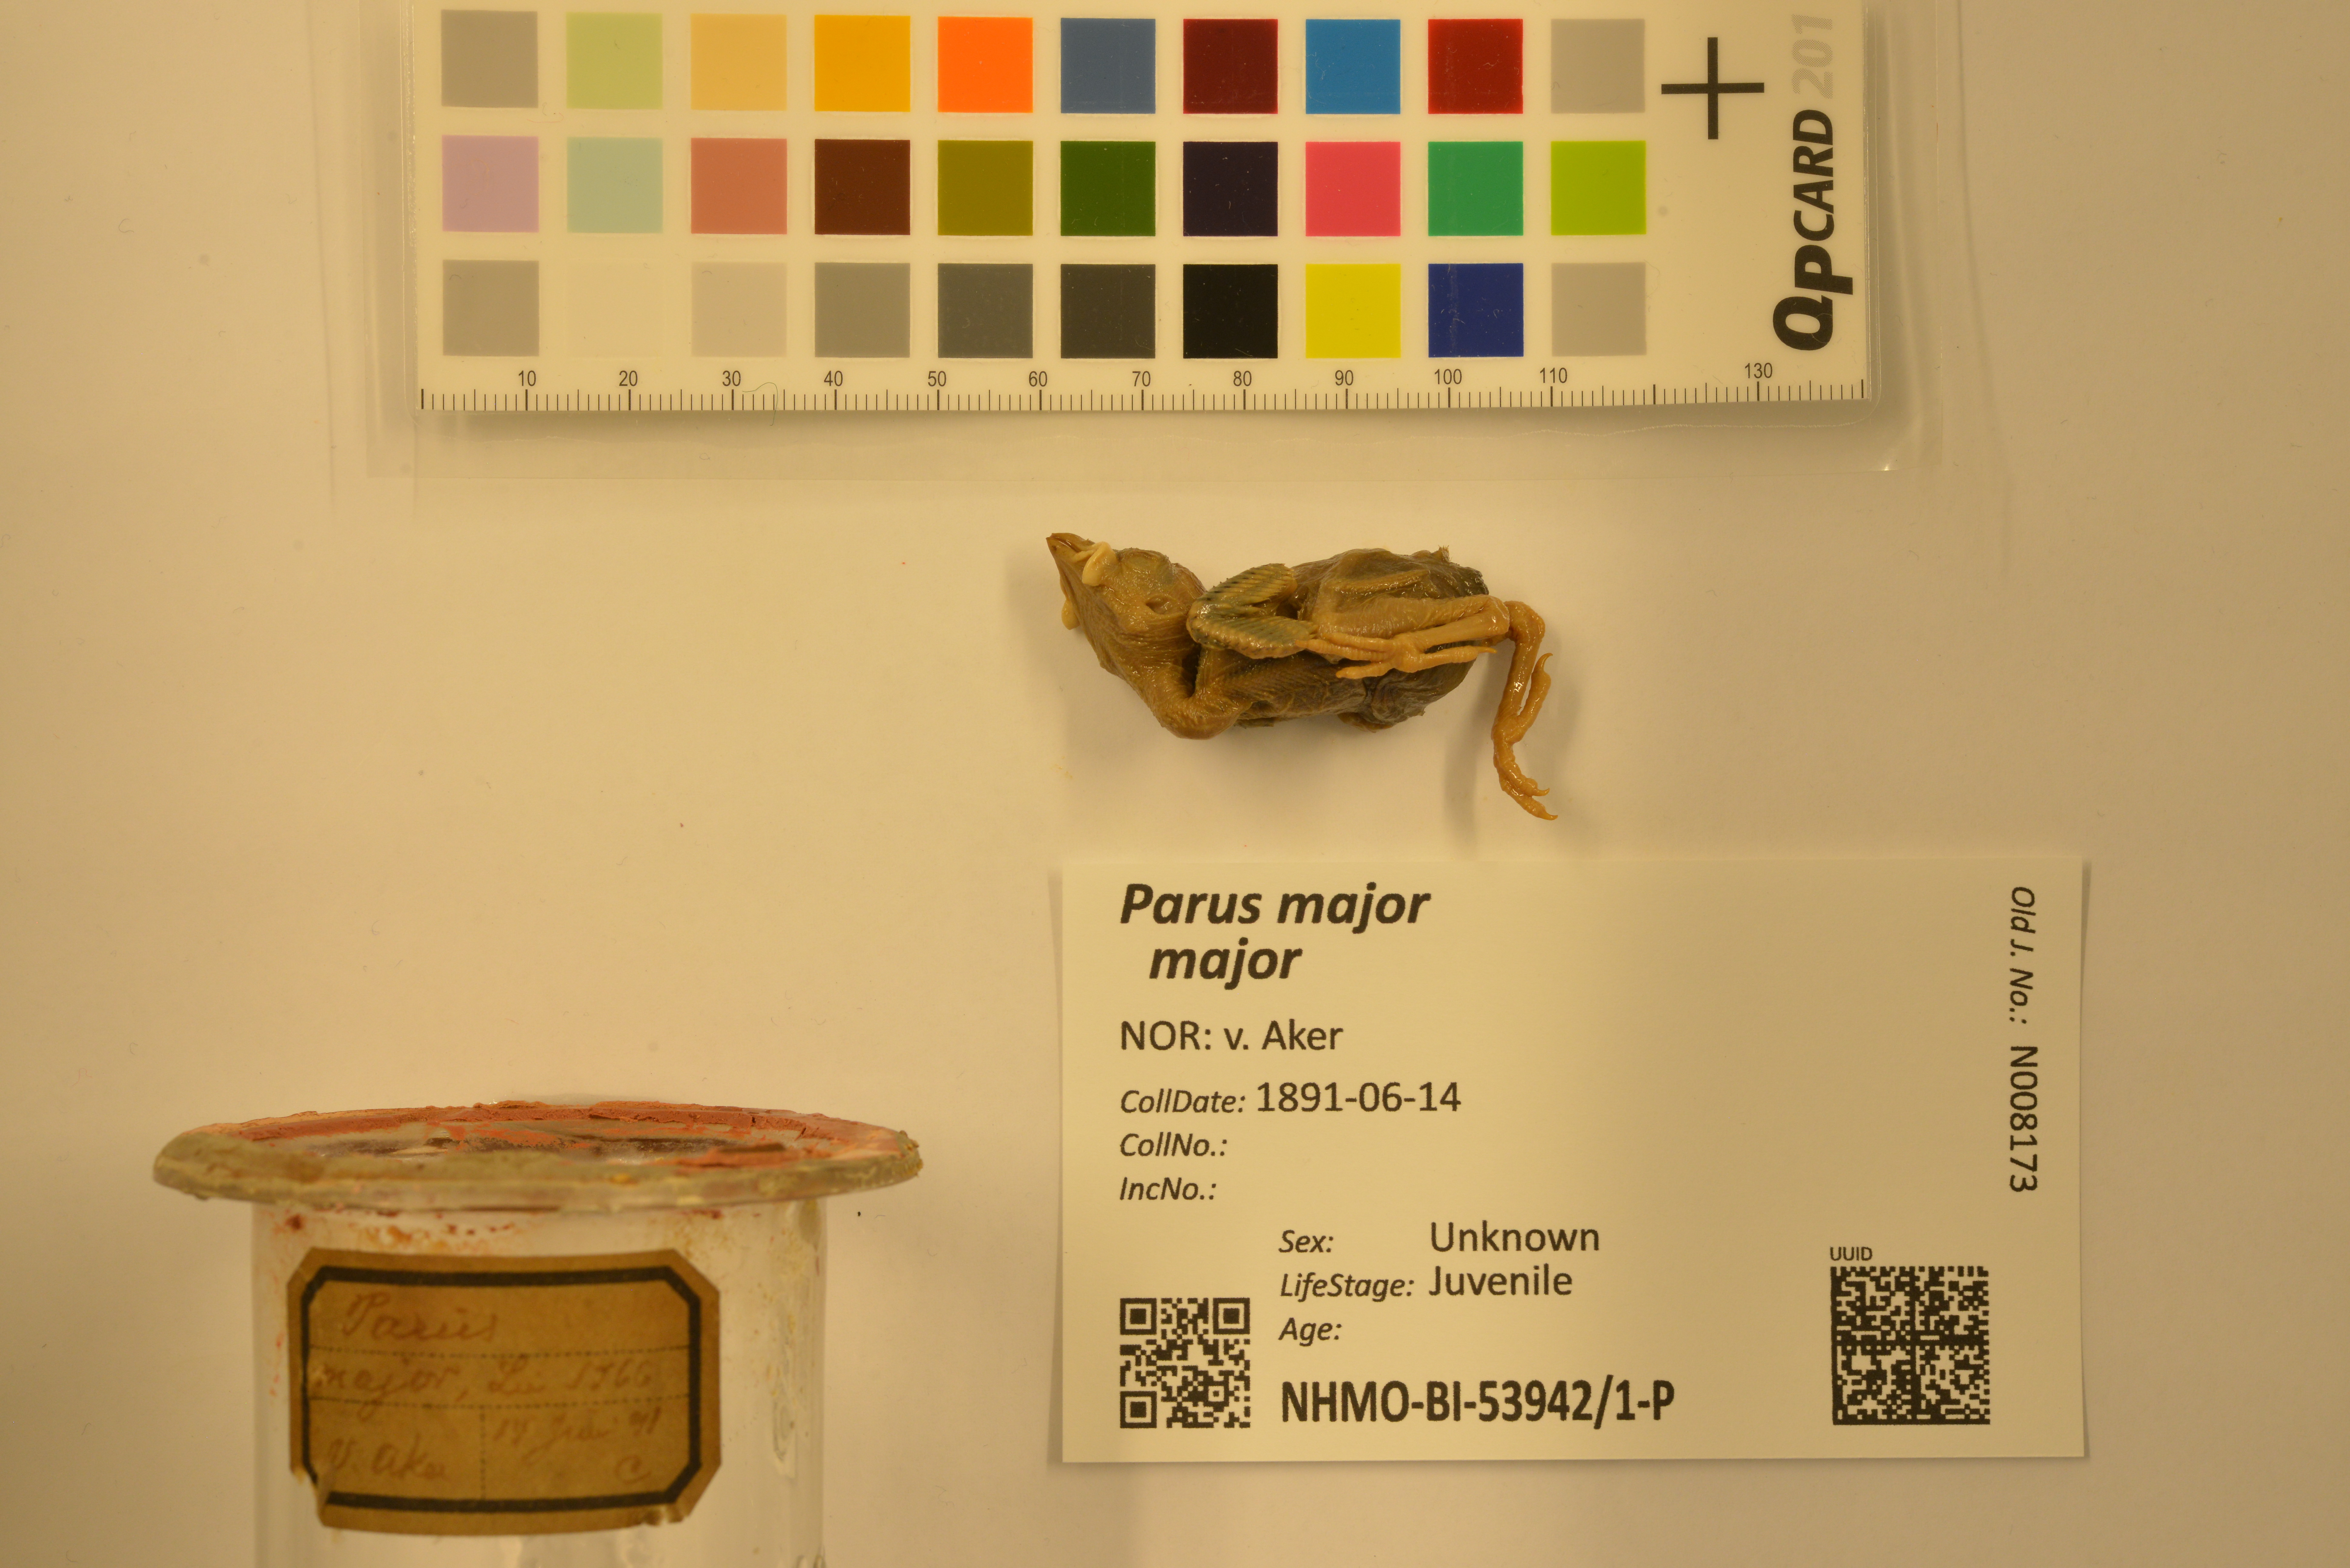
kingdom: Animalia
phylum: Chordata
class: Aves
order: Passeriformes
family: Paridae
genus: Parus
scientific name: Parus major
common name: Great tit
